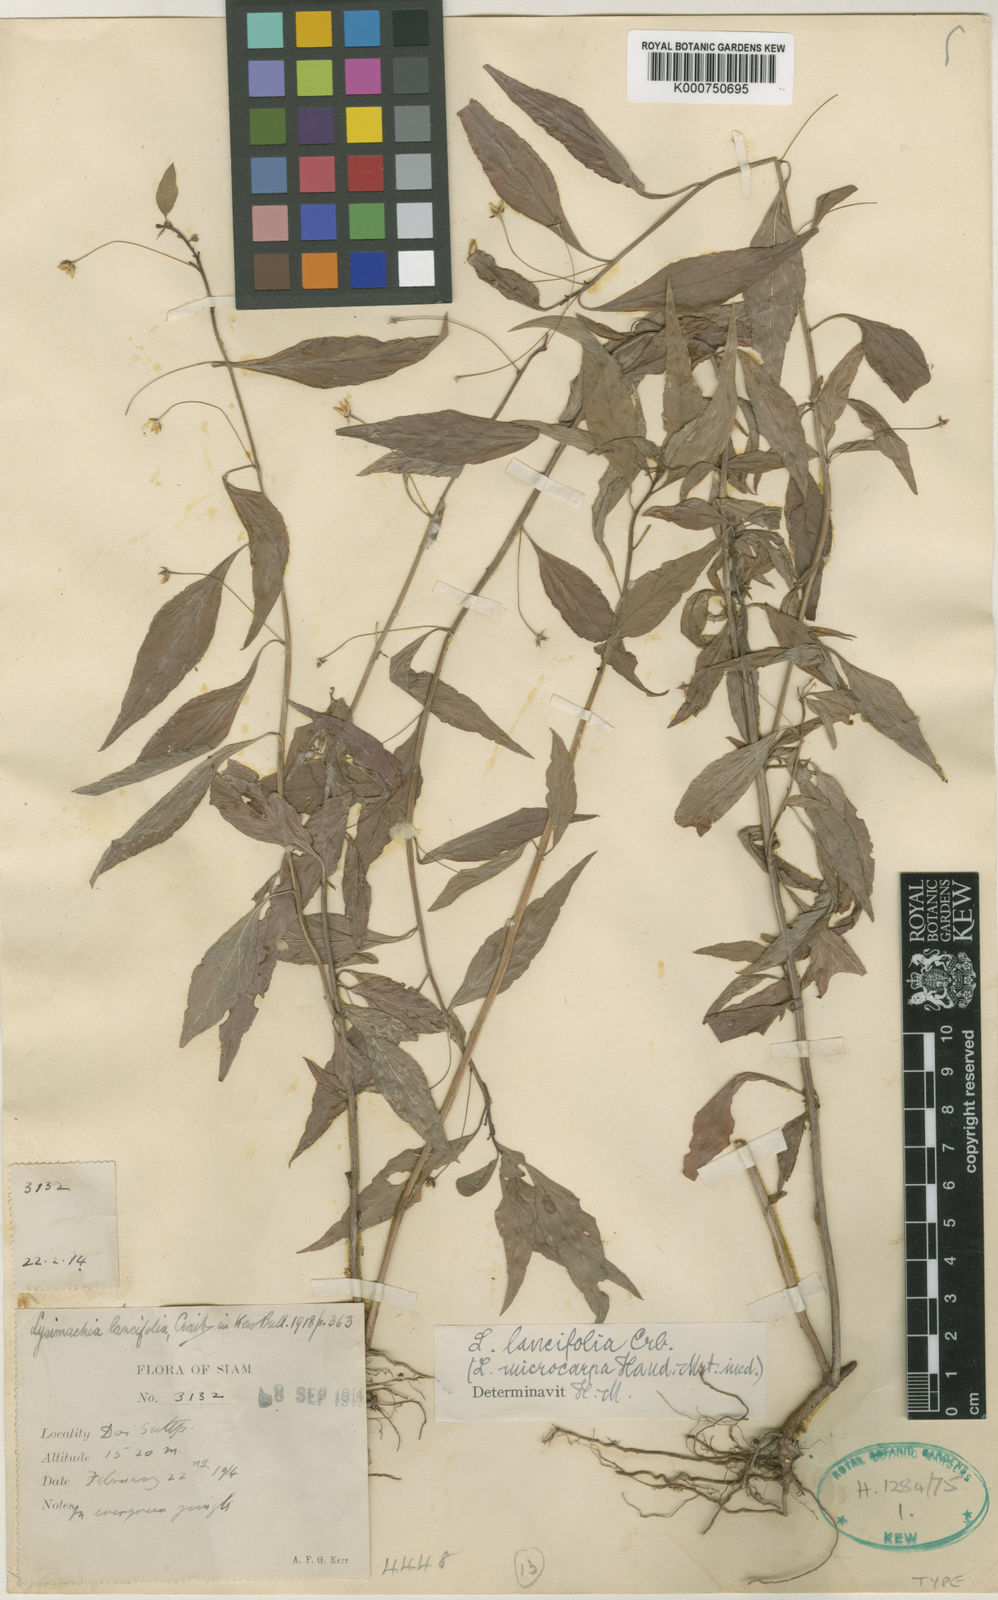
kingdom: Plantae
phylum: Tracheophyta
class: Magnoliopsida
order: Ericales
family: Primulaceae
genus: Lysimachia
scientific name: Lysimachia lancifolia
